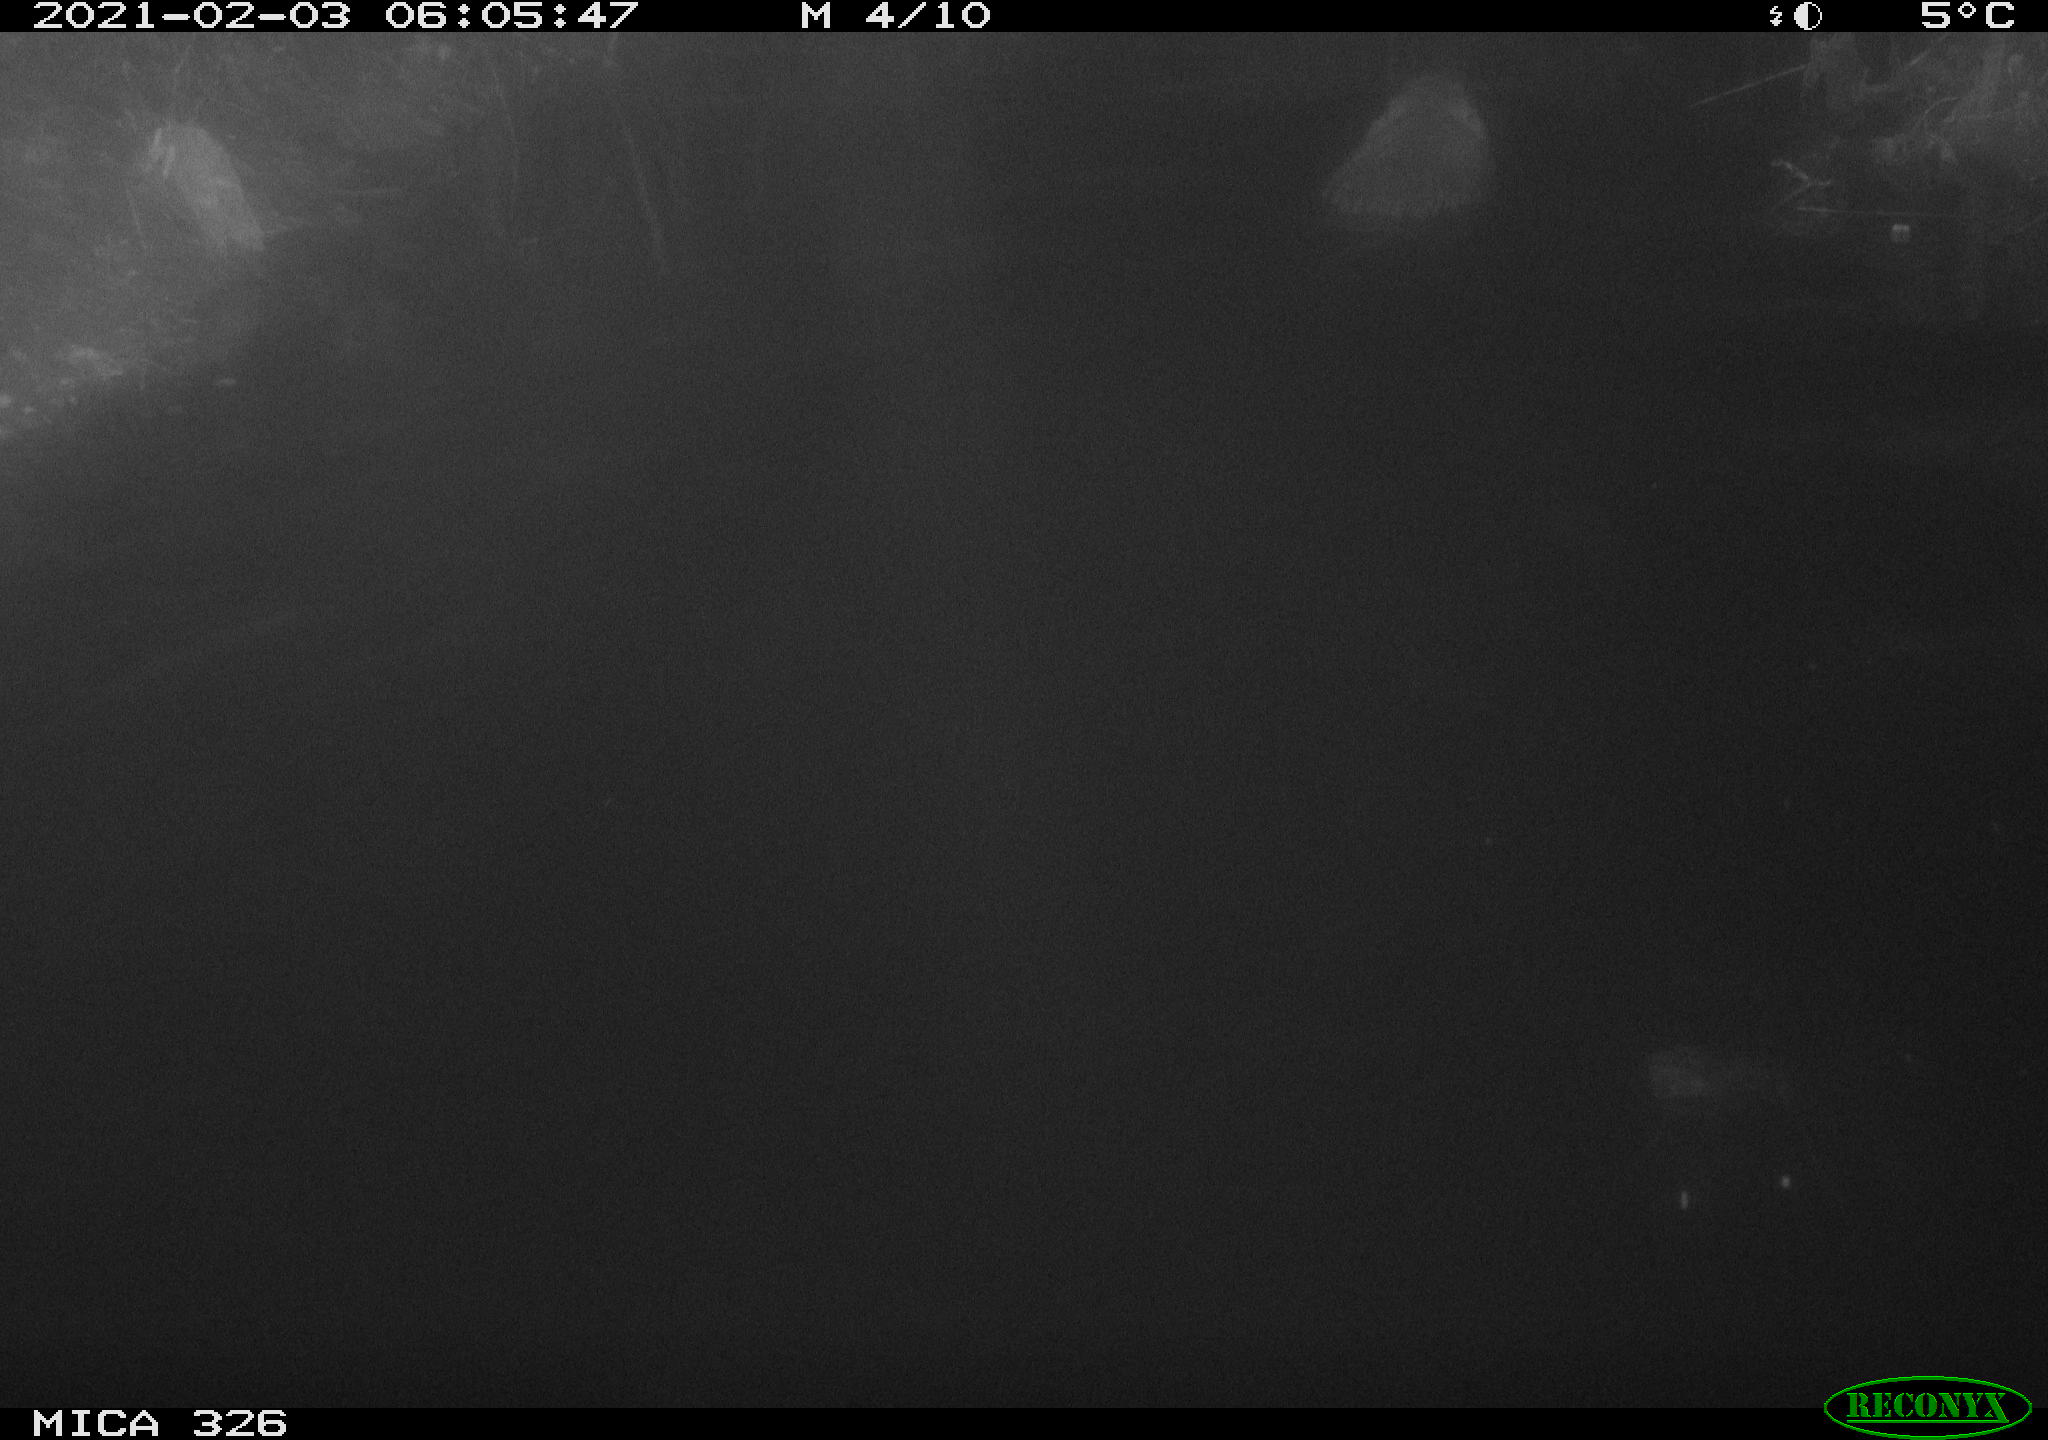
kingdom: Animalia
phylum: Chordata
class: Mammalia
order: Rodentia
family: Myocastoridae
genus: Myocastor
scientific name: Myocastor coypus
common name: Coypu
